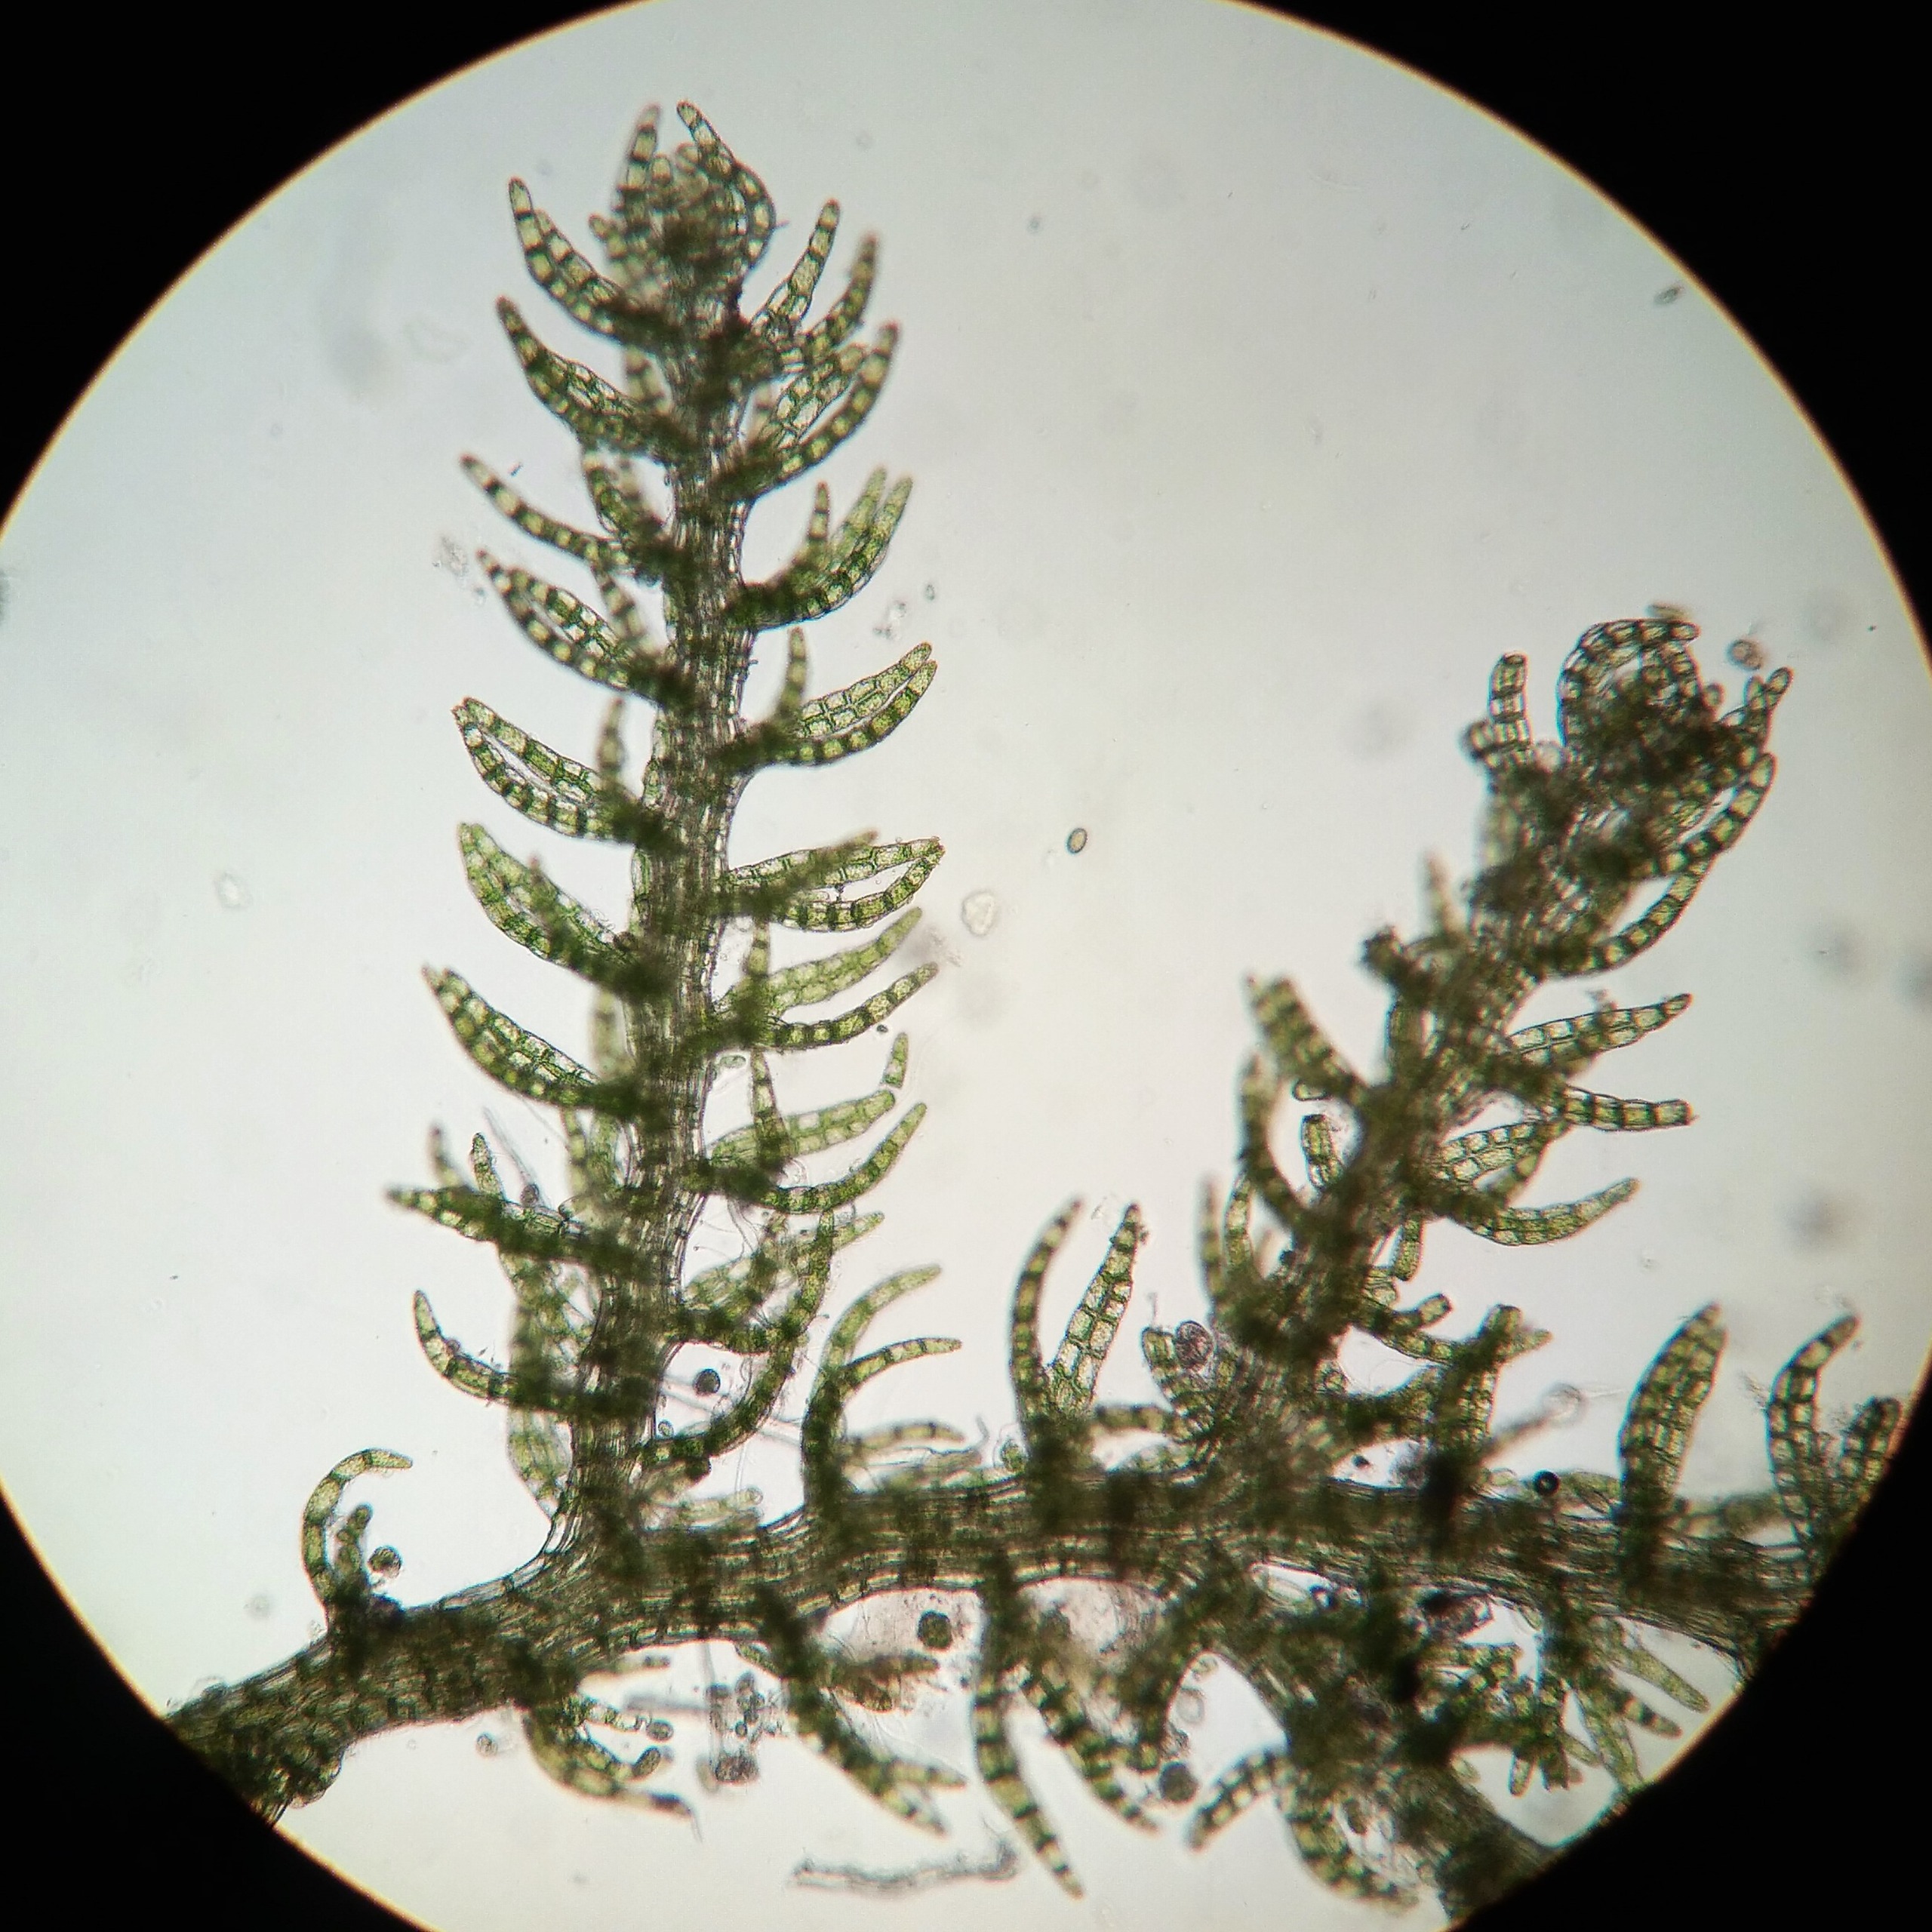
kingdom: Plantae
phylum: Marchantiophyta
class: Jungermanniopsida
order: Jungermanniales
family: Lepidoziaceae
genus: Kurzia
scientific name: Kurzia pauciflora
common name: Mose-dværghånd
